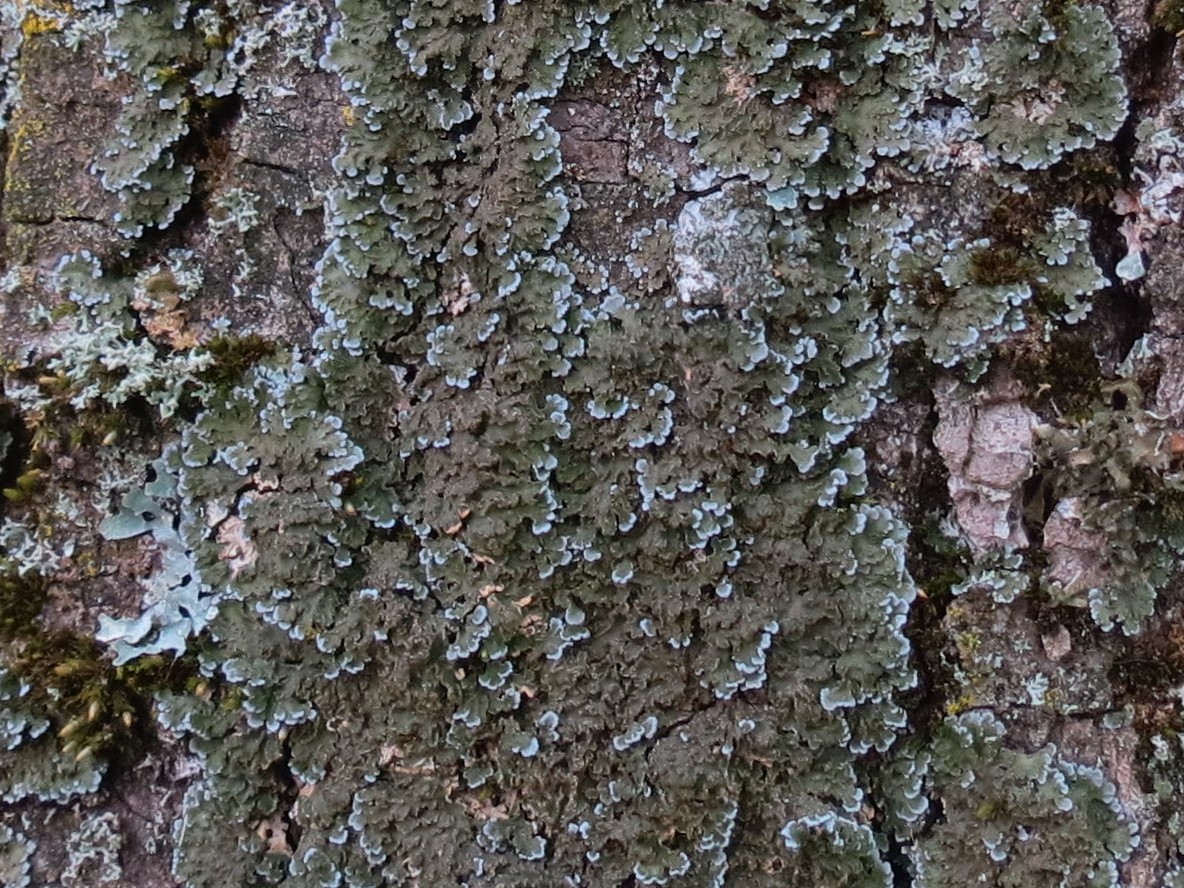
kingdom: Fungi
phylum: Ascomycota
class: Lecanoromycetes
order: Caliciales
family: Physciaceae
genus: Physconia
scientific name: Physconia distorta
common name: pudret dugrosetlav
